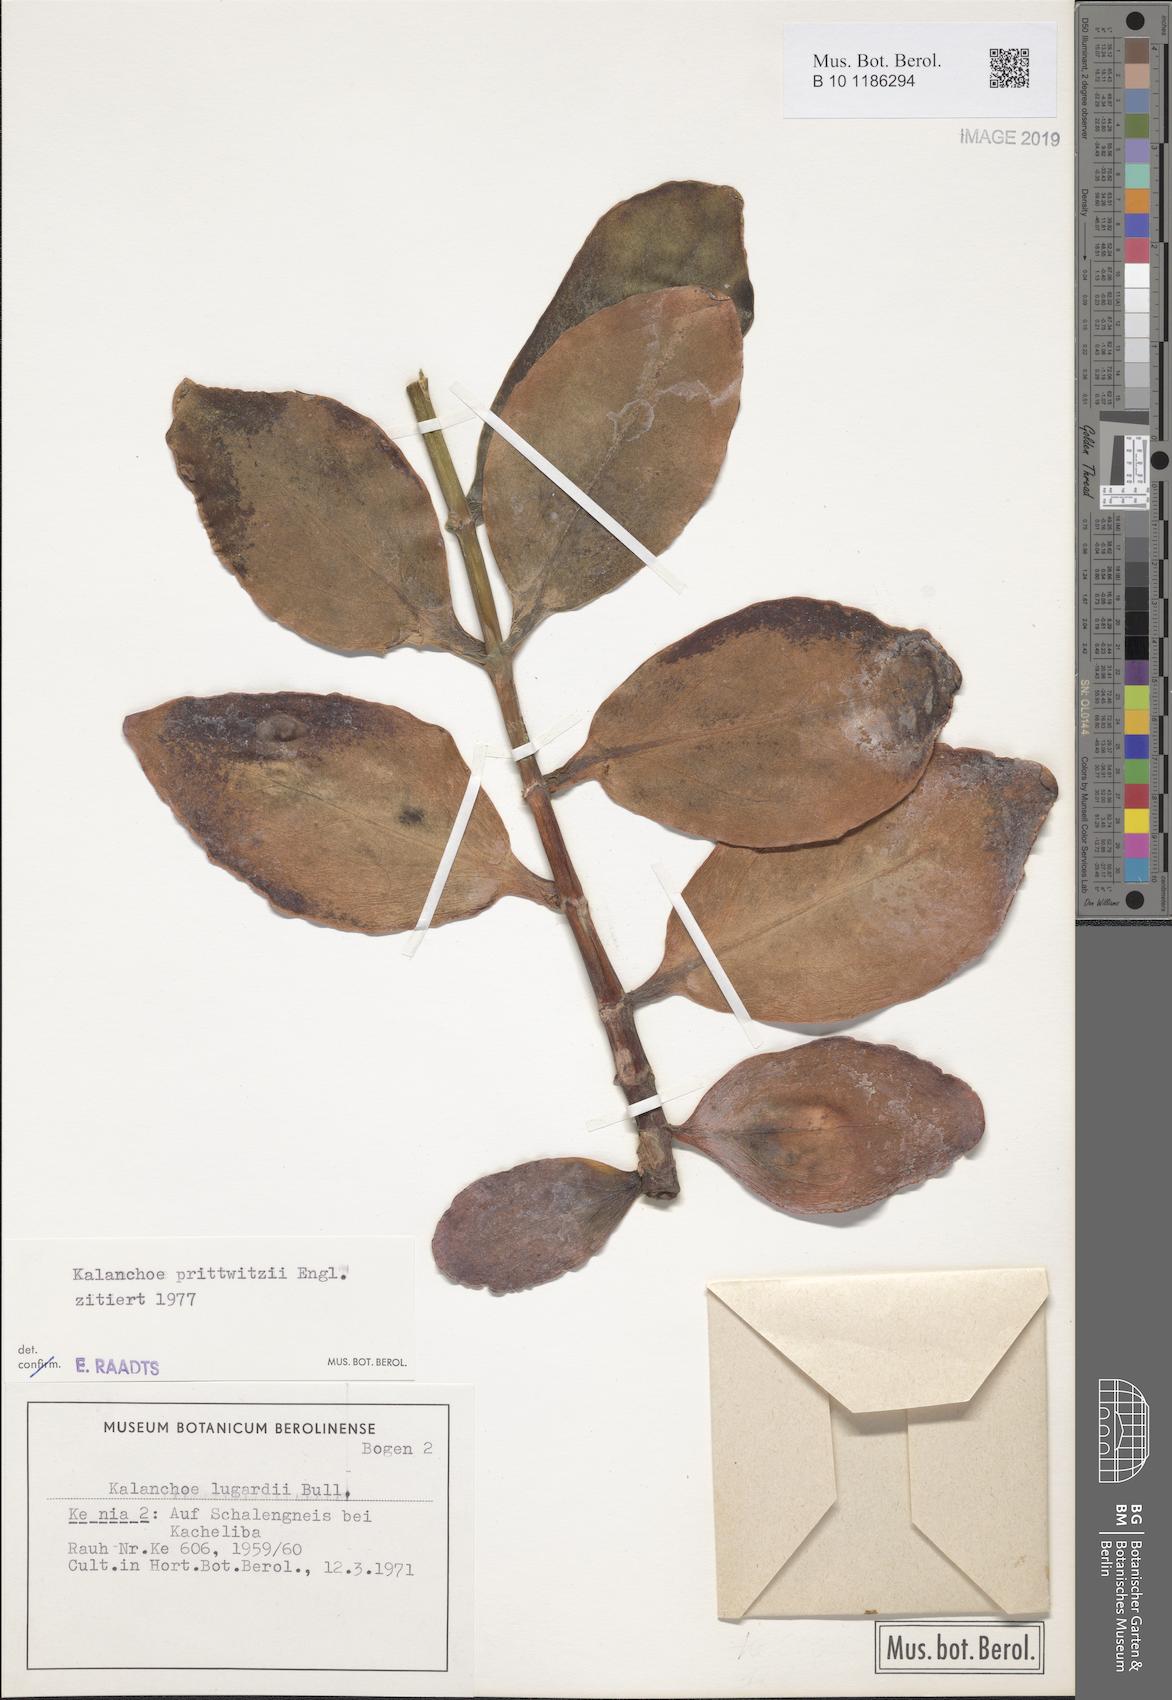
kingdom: Plantae
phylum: Tracheophyta
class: Magnoliopsida
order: Saxifragales
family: Crassulaceae
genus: Kalanchoe
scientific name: Kalanchoe prittwitzii
